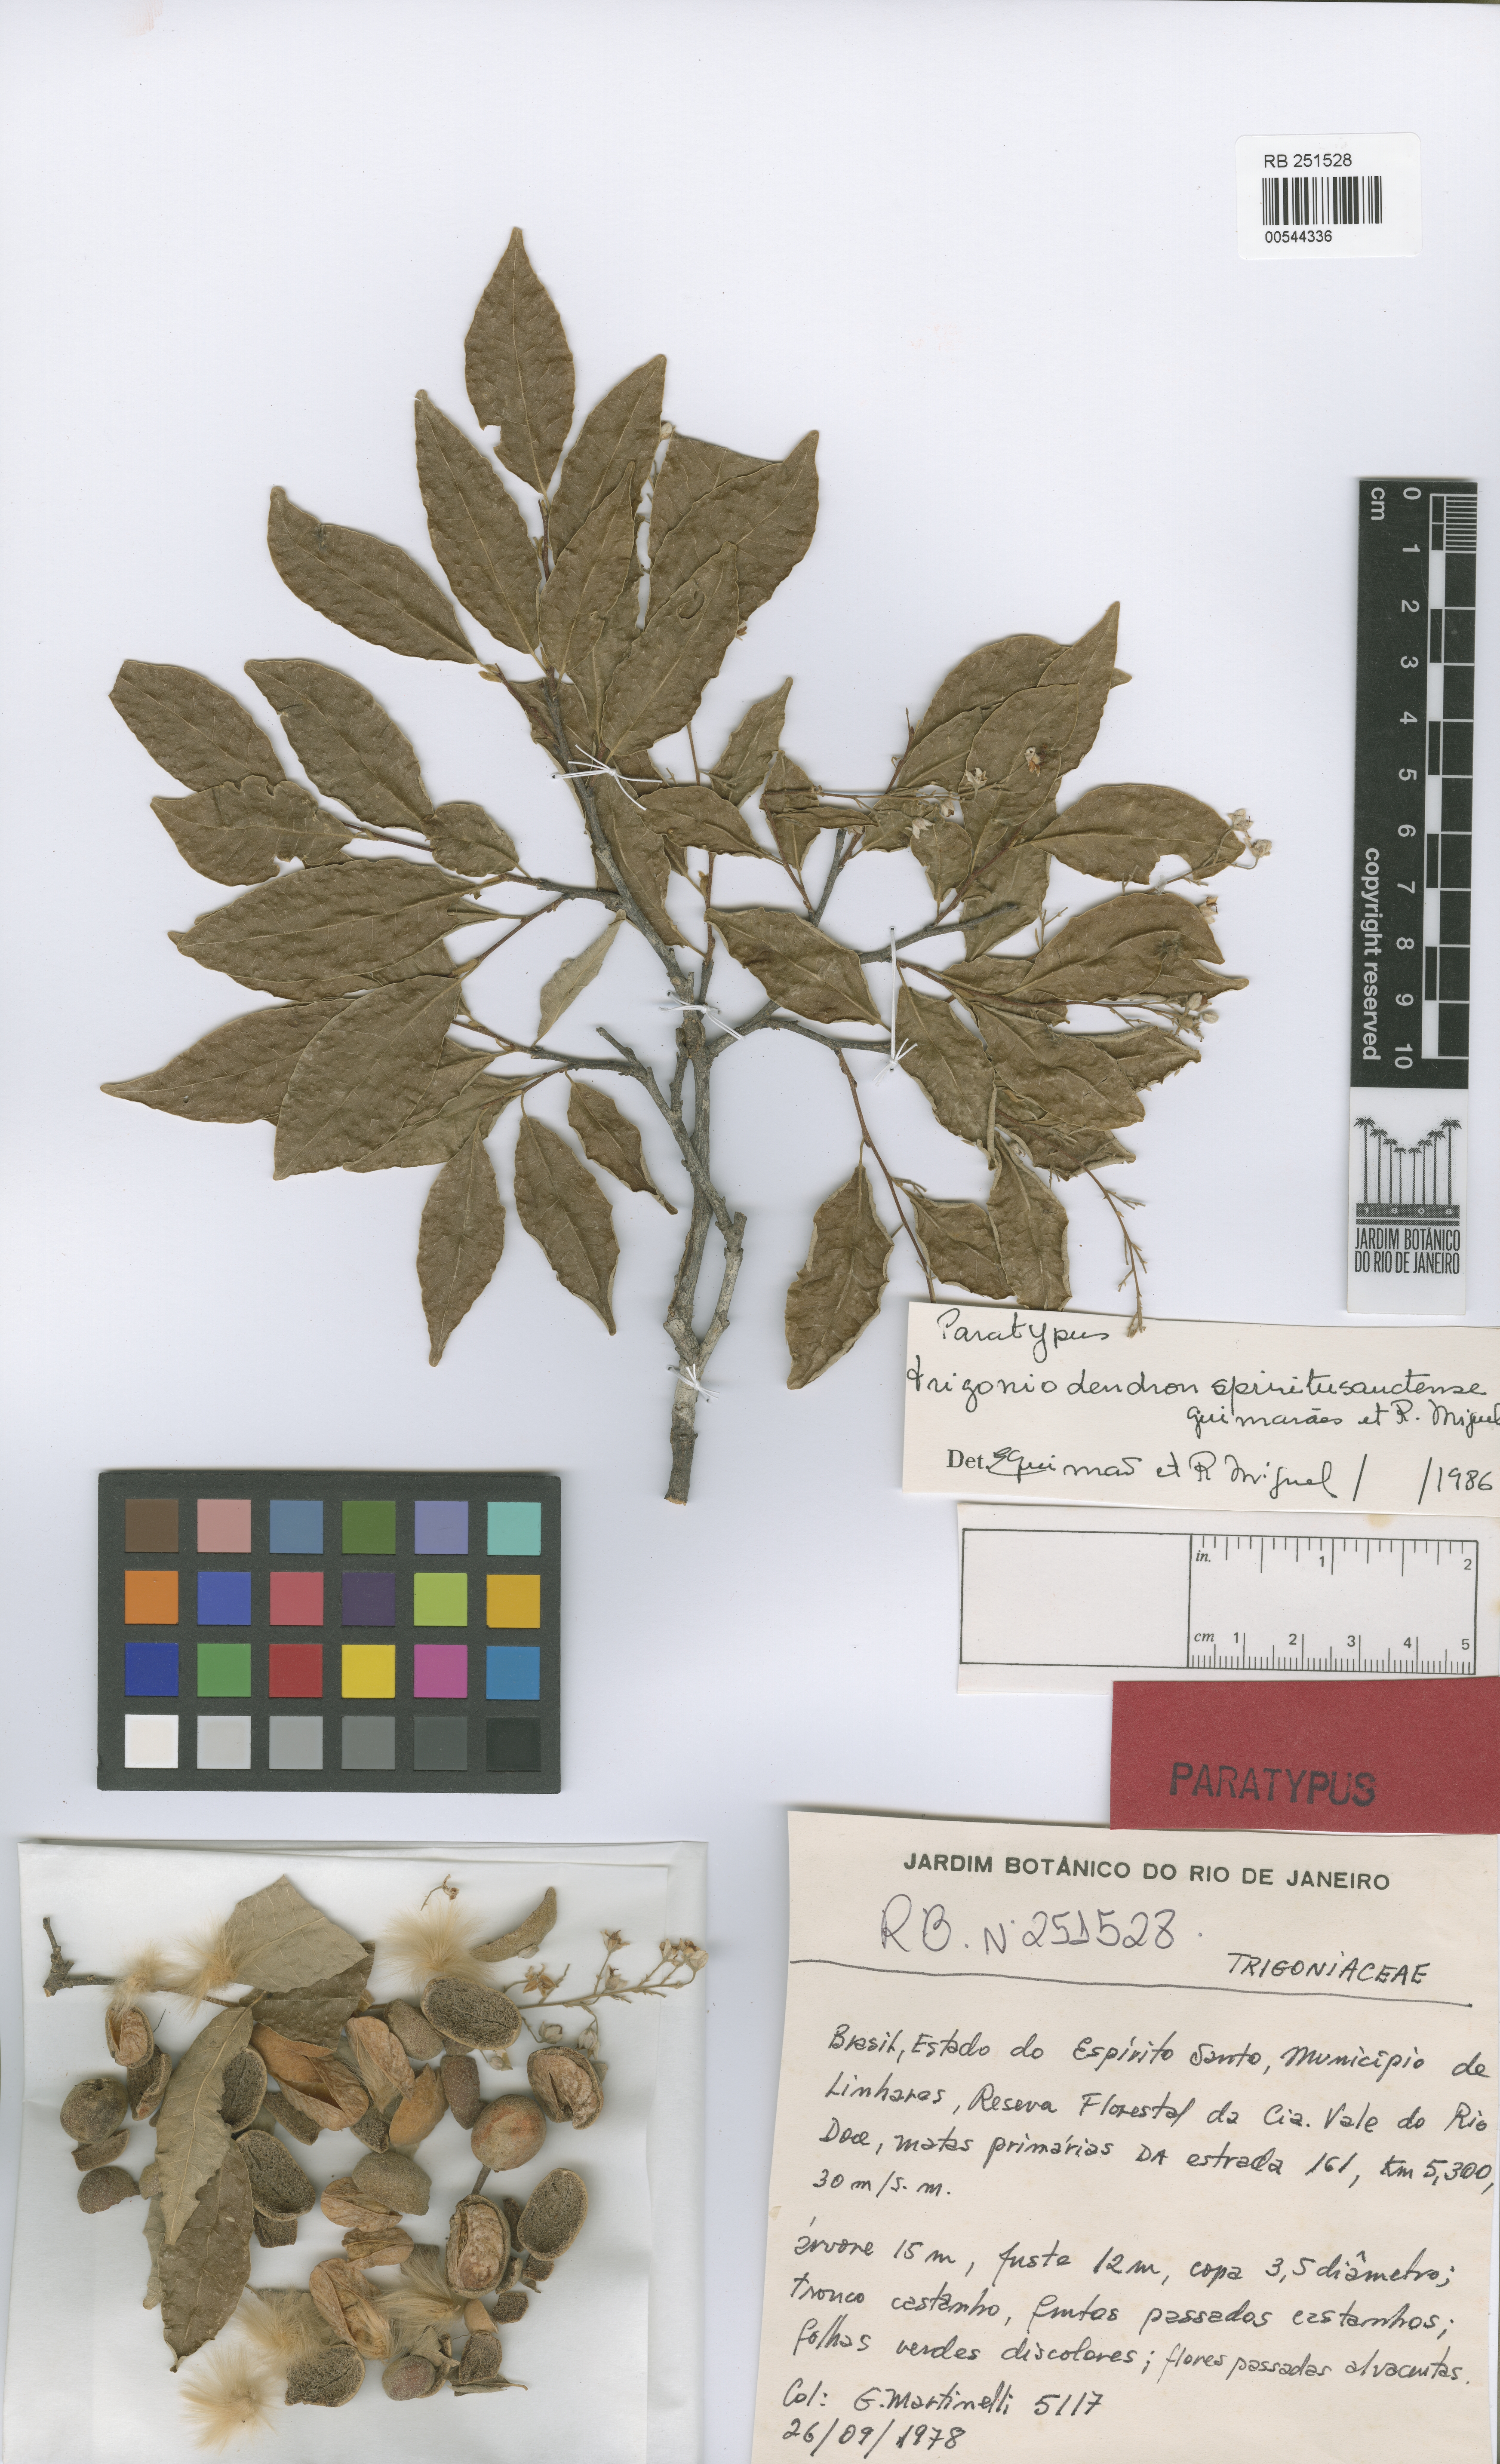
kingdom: Plantae
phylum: Tracheophyta
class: Magnoliopsida
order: Malpighiales
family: Trigoniaceae
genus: Trigoniodendron
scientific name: Trigoniodendron spiritusanctense
